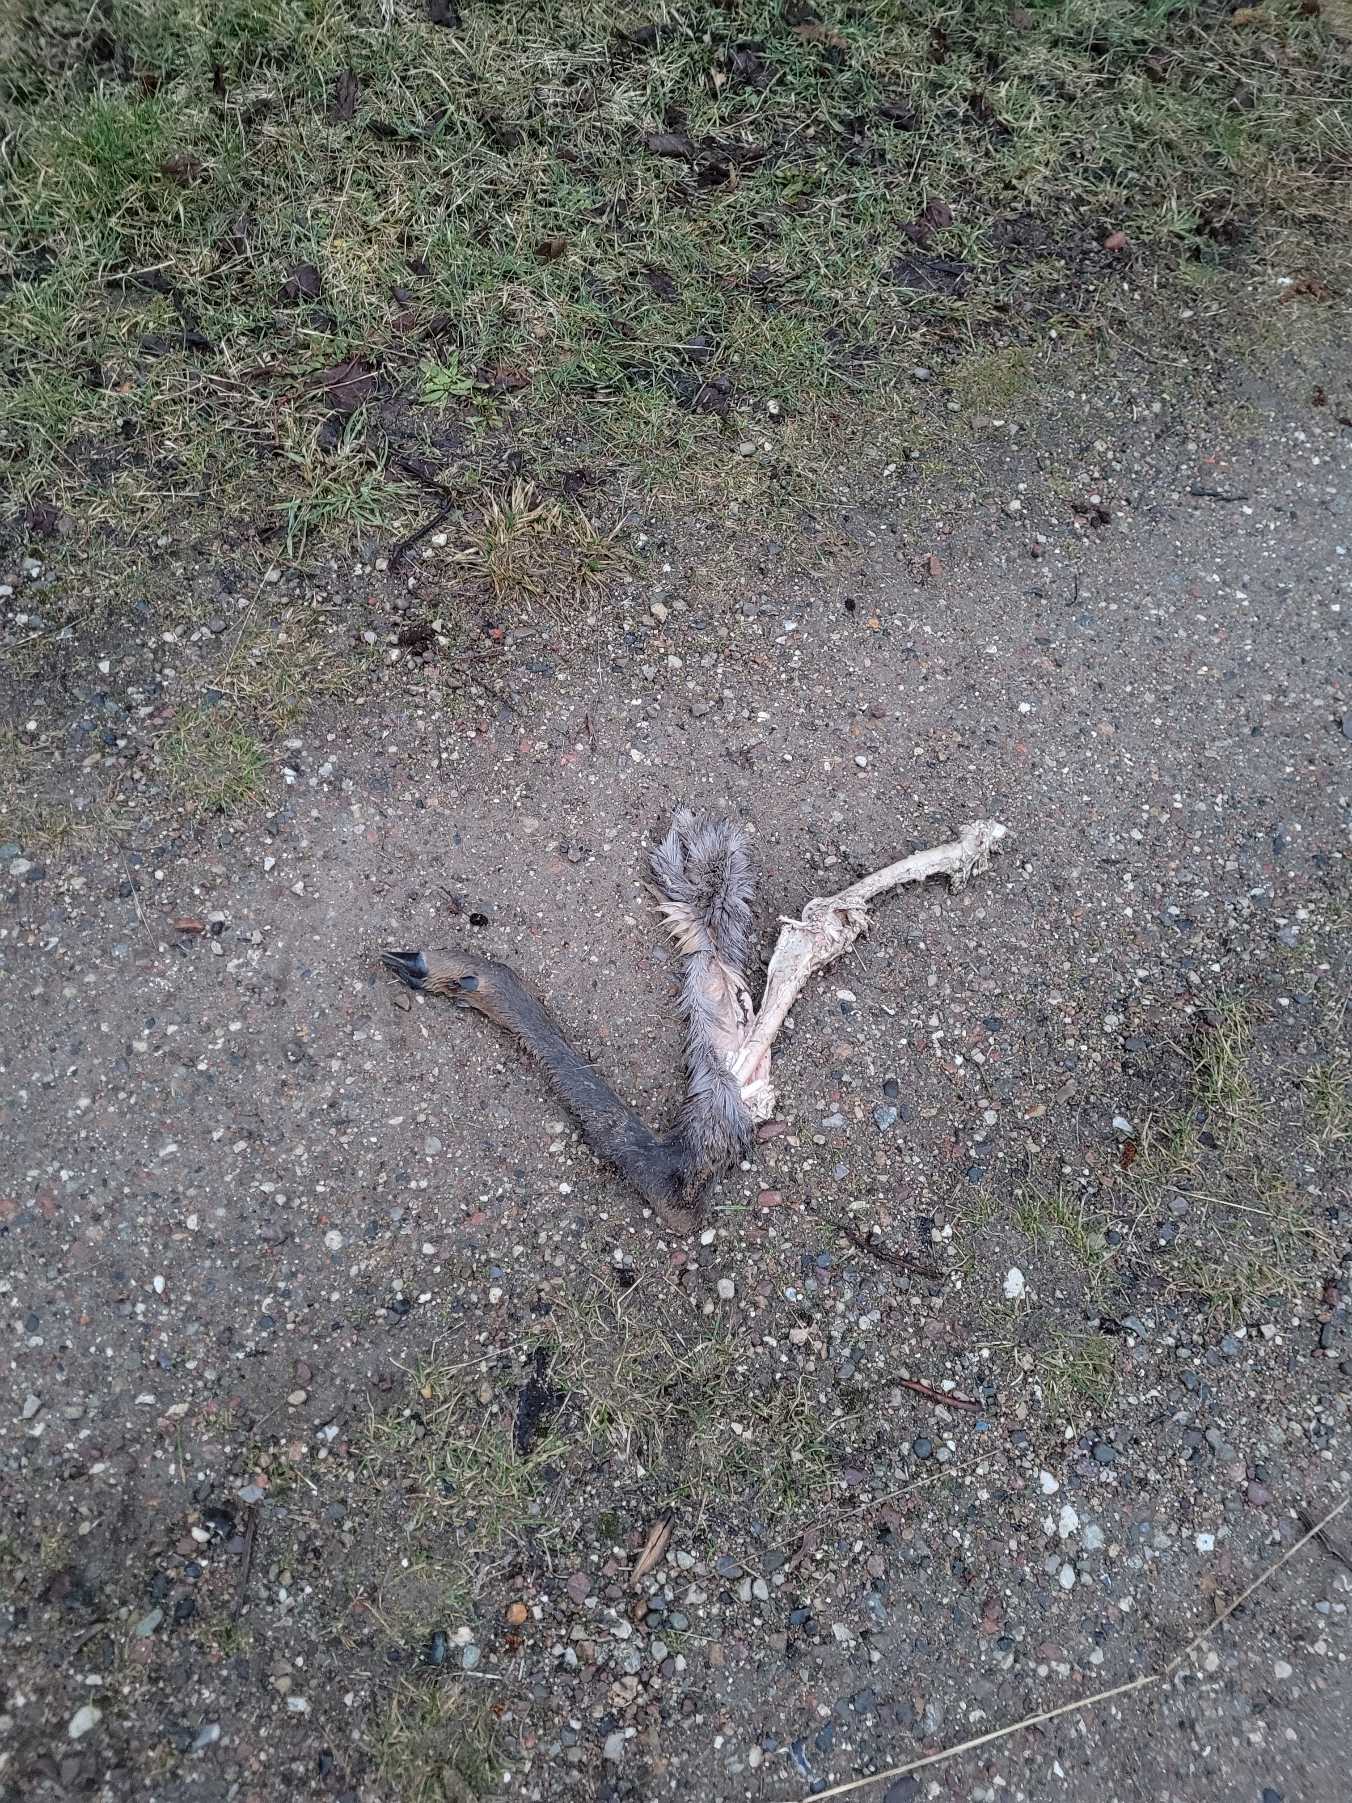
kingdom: Animalia
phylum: Chordata
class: Mammalia
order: Artiodactyla
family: Cervidae
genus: Capreolus
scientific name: Capreolus capreolus
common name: Rådyr
